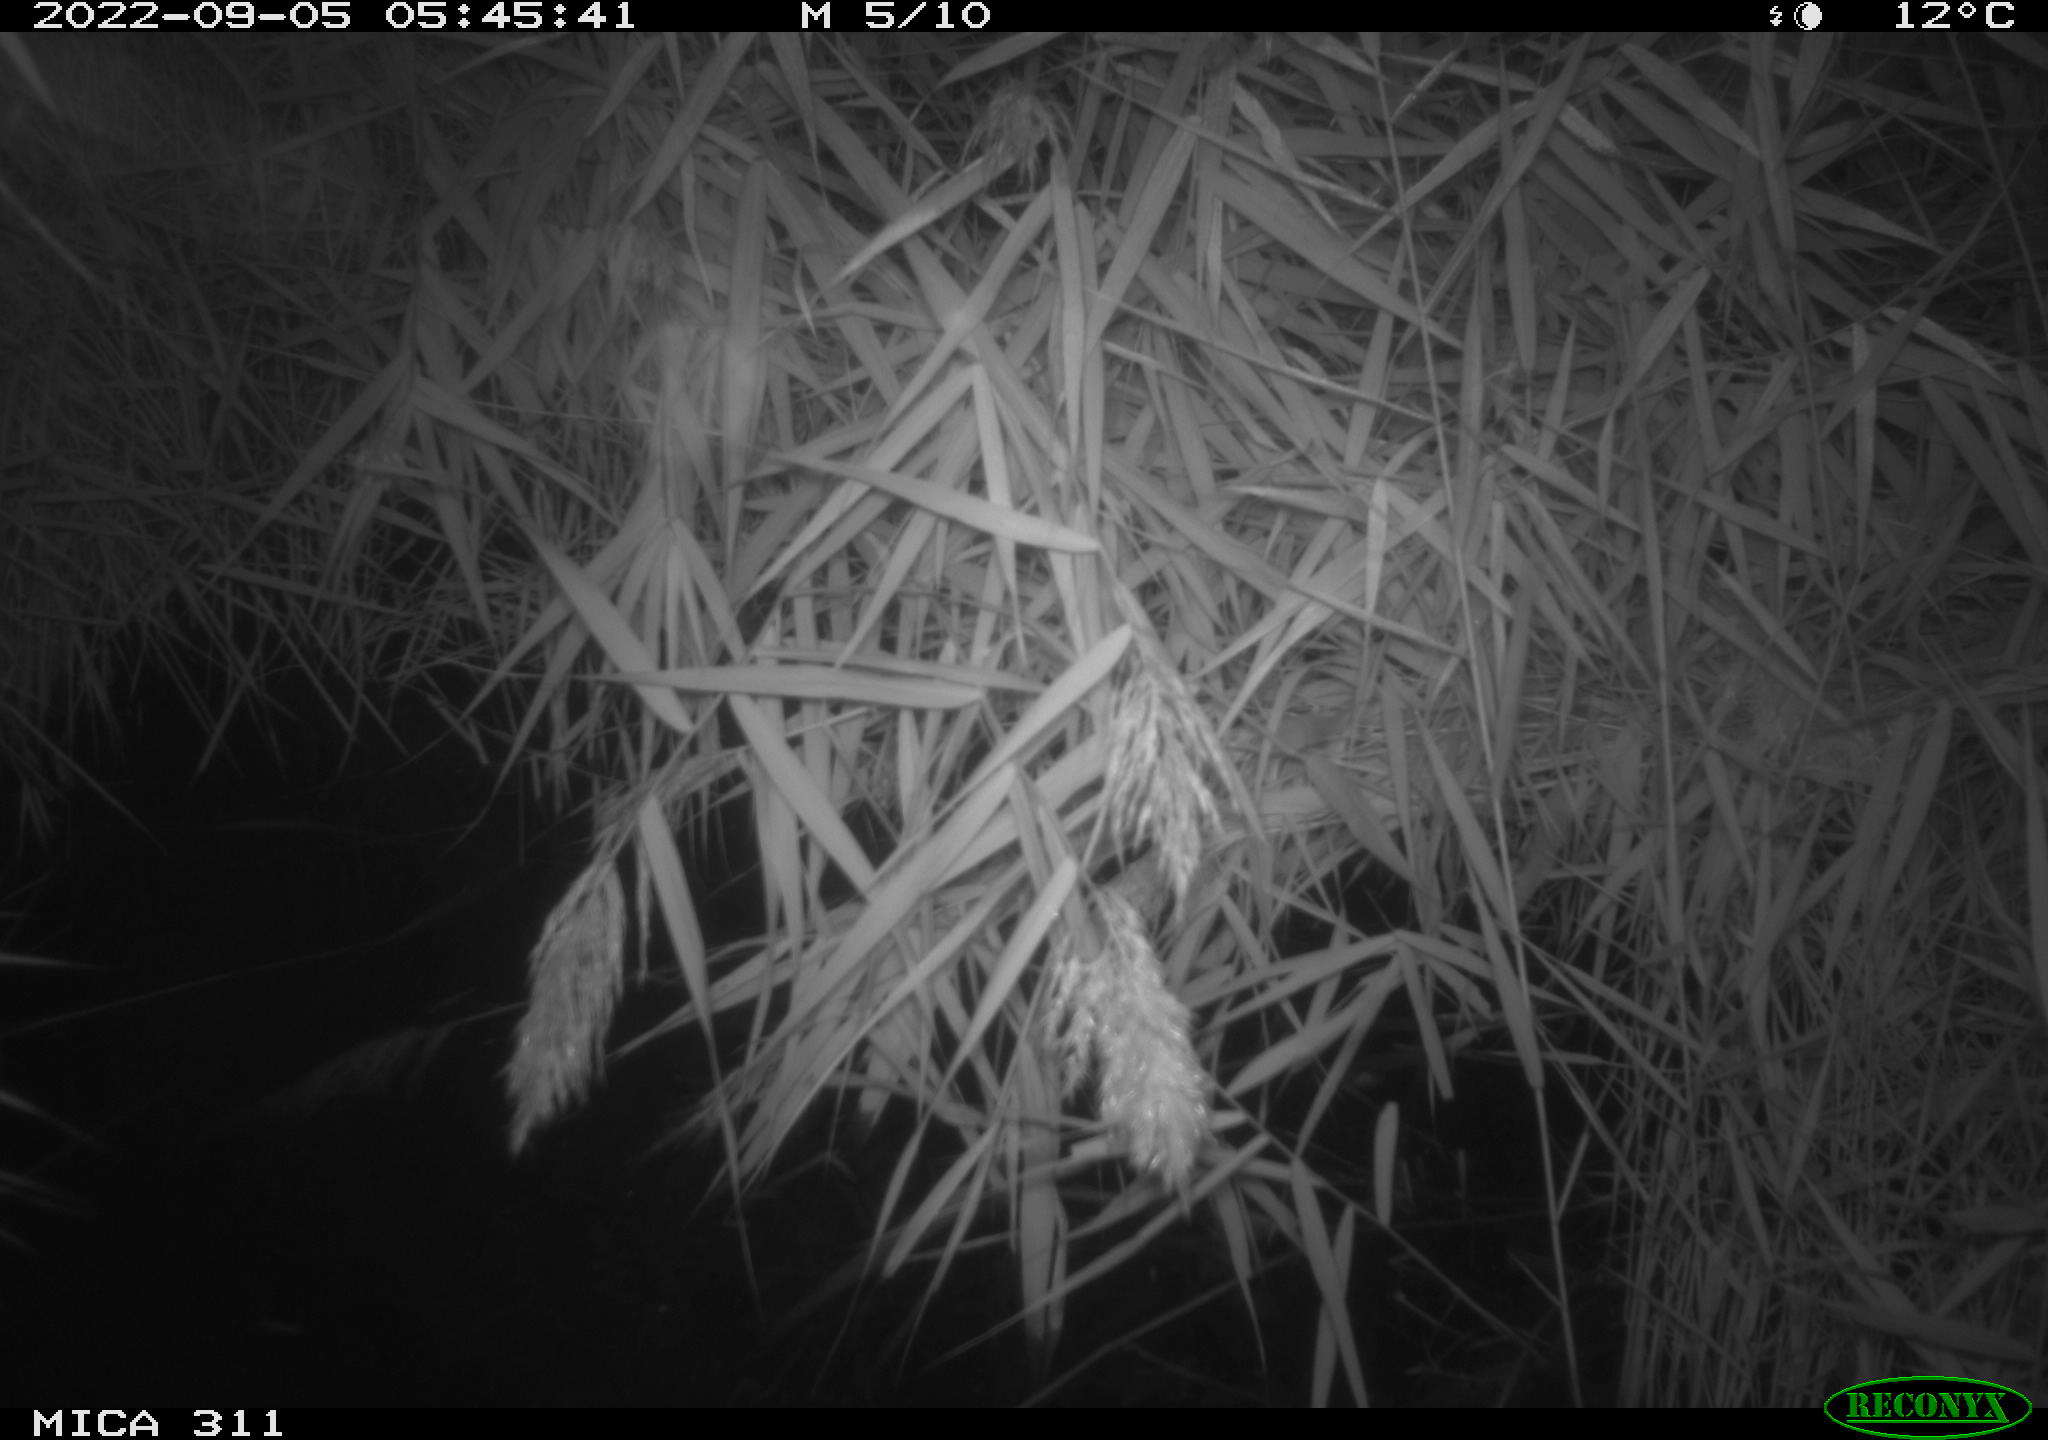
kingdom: Animalia
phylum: Chordata
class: Mammalia
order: Rodentia
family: Muridae
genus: Rattus
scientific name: Rattus norvegicus
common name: Brown rat
